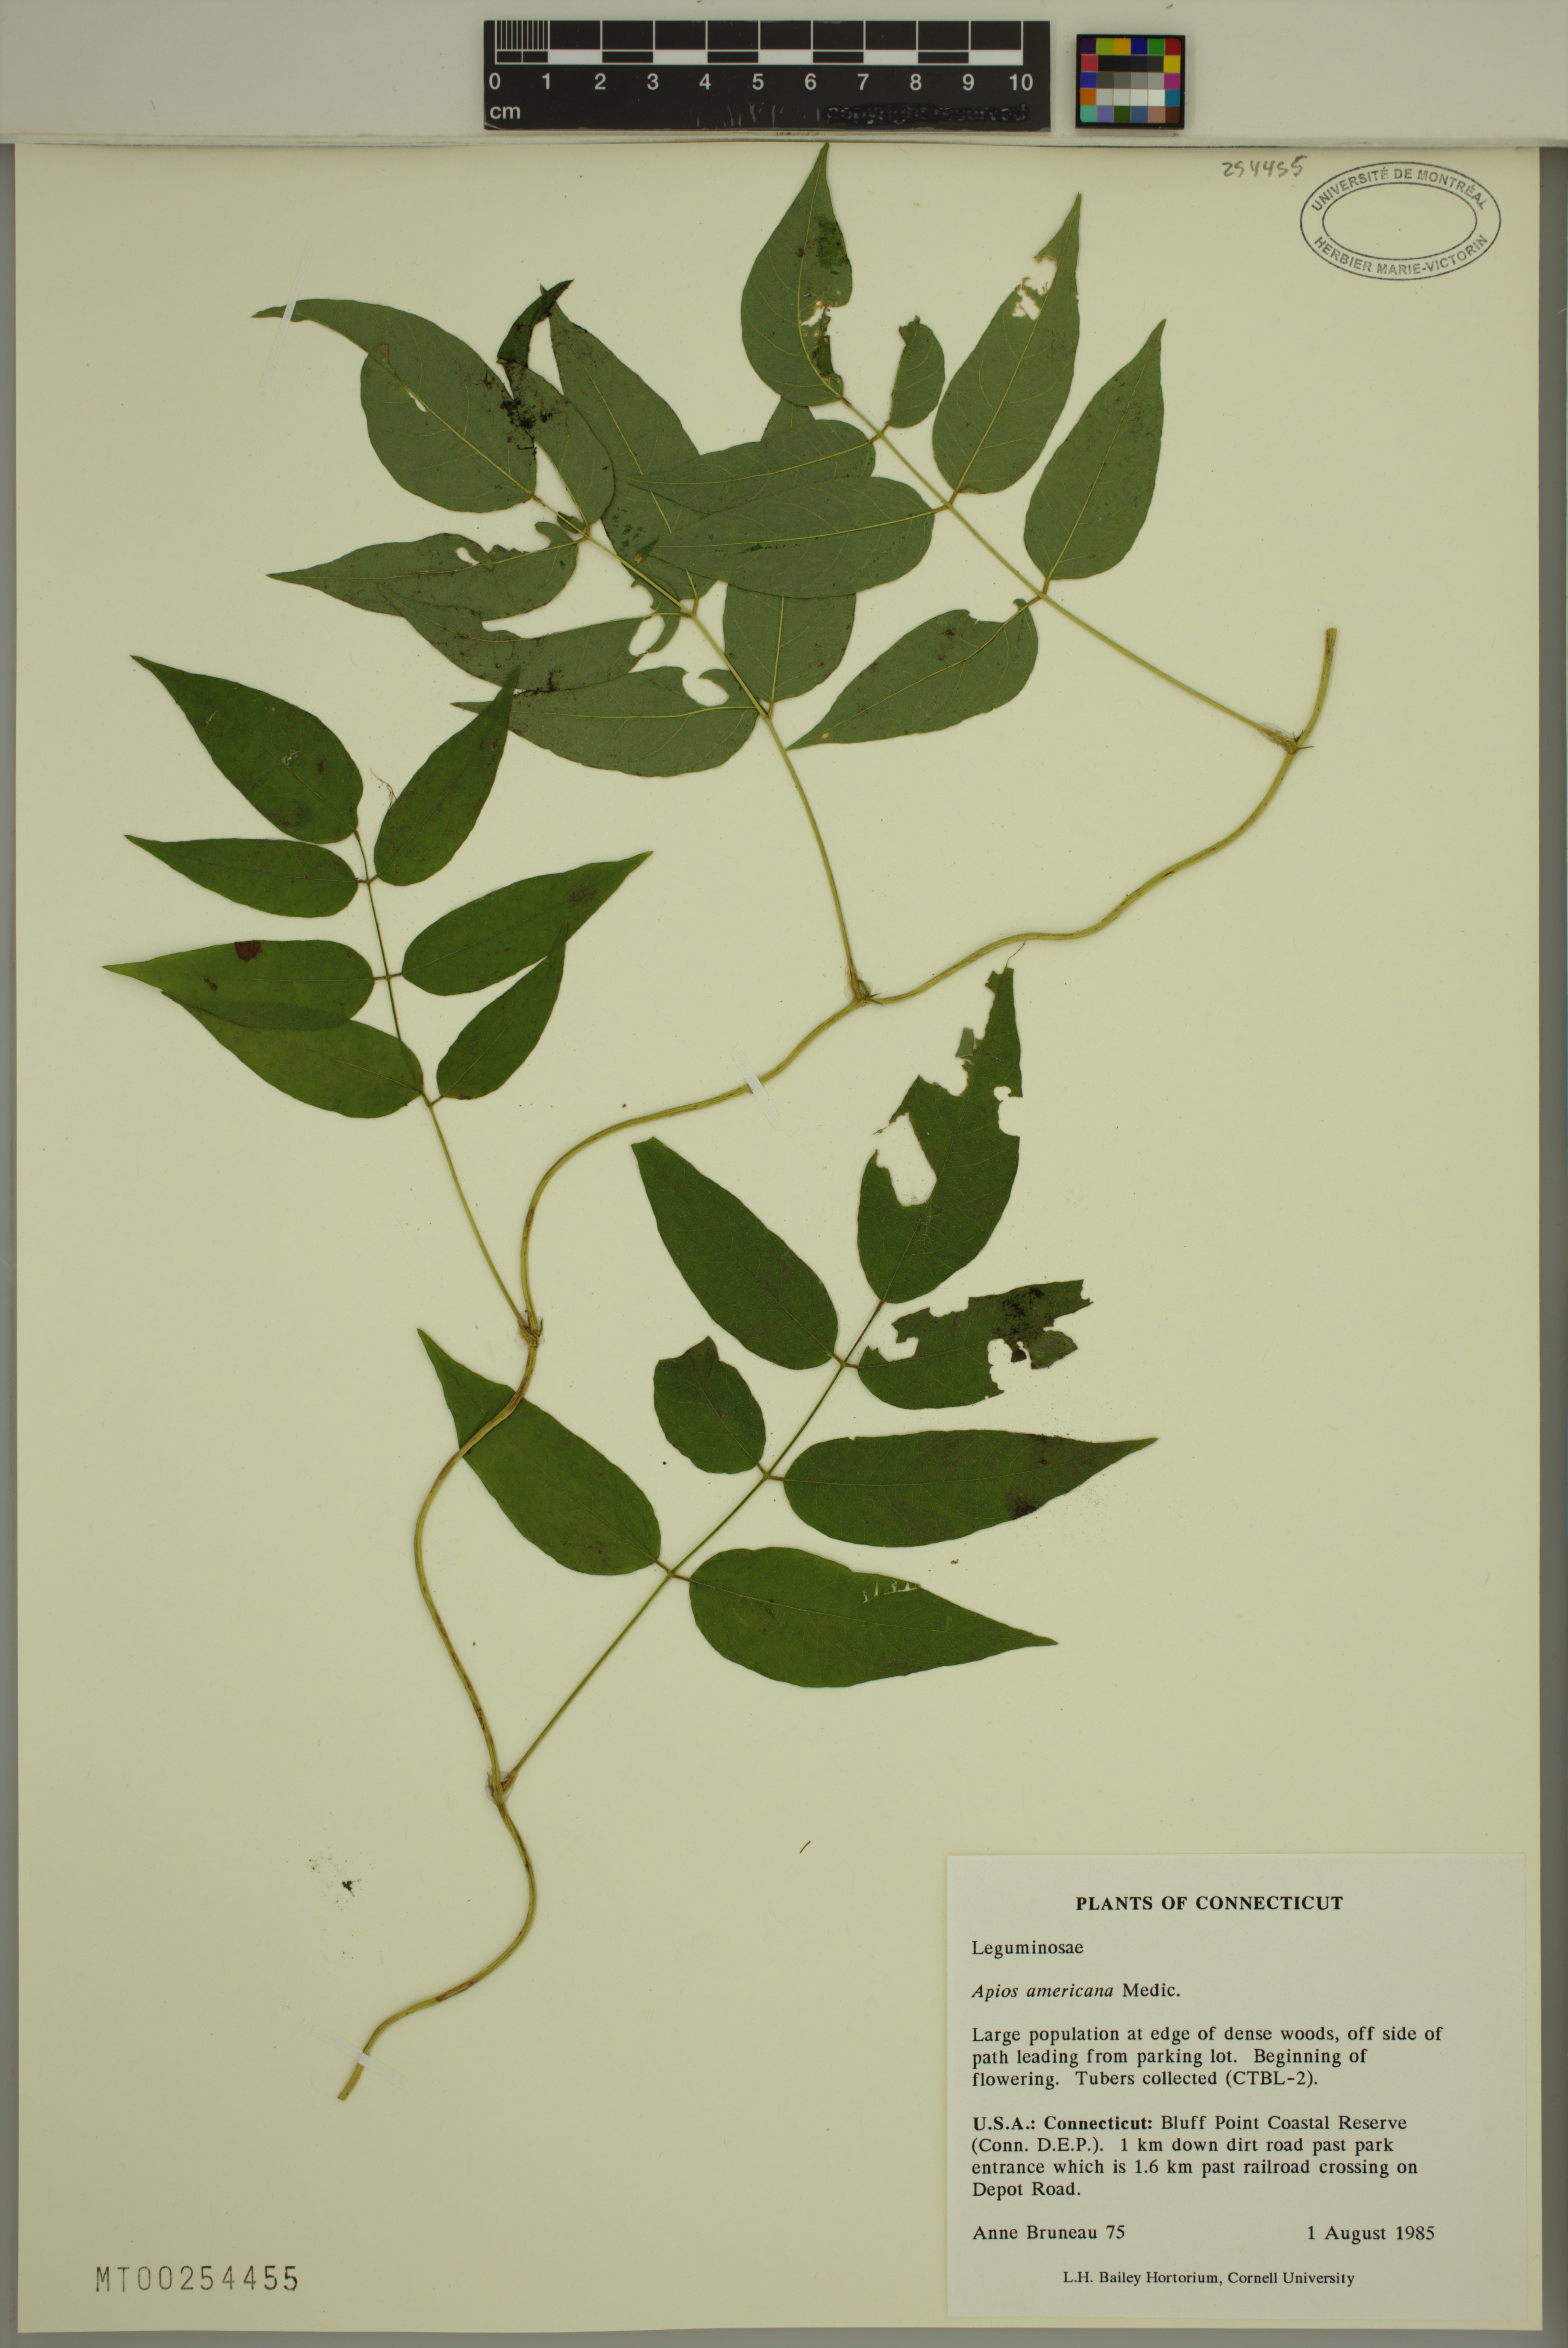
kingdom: Plantae
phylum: Tracheophyta
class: Magnoliopsida
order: Fabales
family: Fabaceae
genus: Apios
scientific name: Apios americana
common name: American potato-bean
